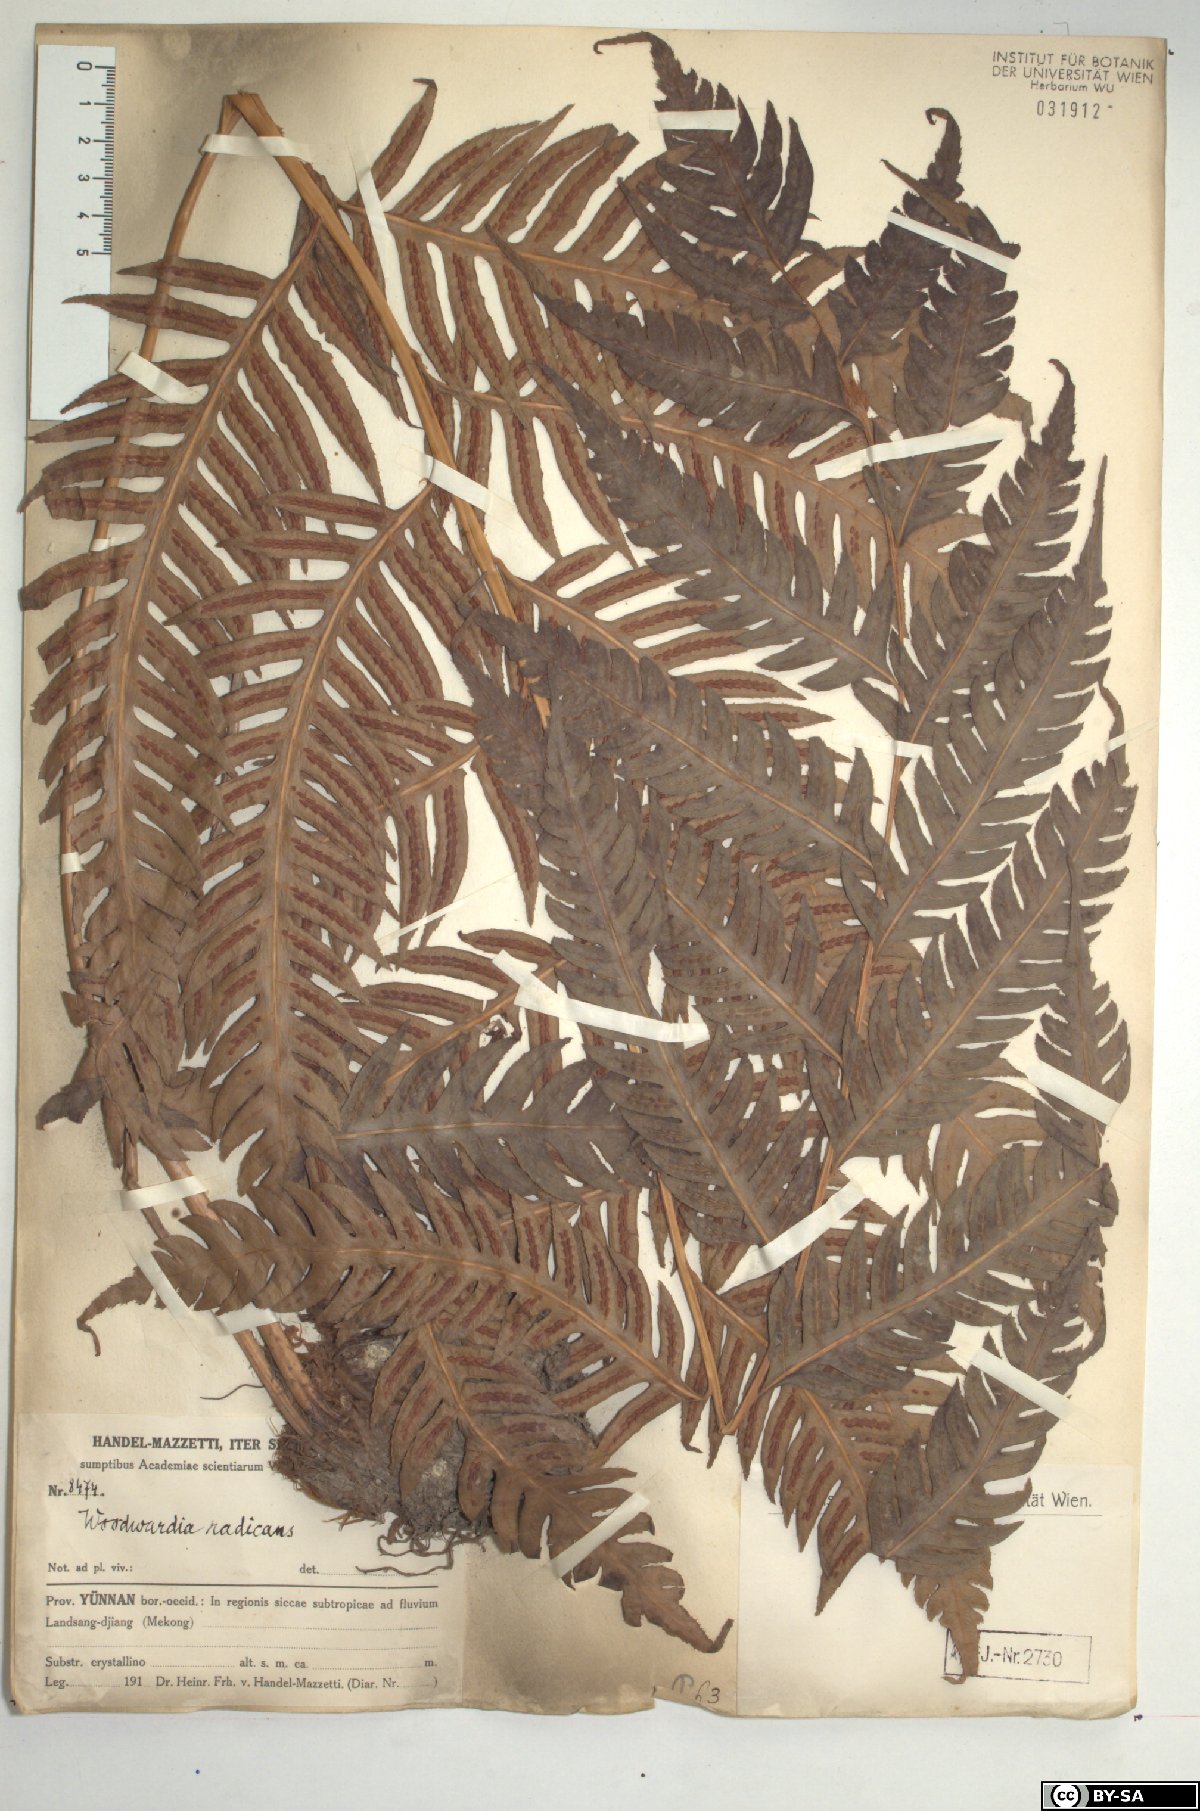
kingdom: Plantae
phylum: Tracheophyta
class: Polypodiopsida
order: Polypodiales
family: Blechnaceae
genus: Woodwardia
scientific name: Woodwardia radicans
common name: Rooting chainfern
